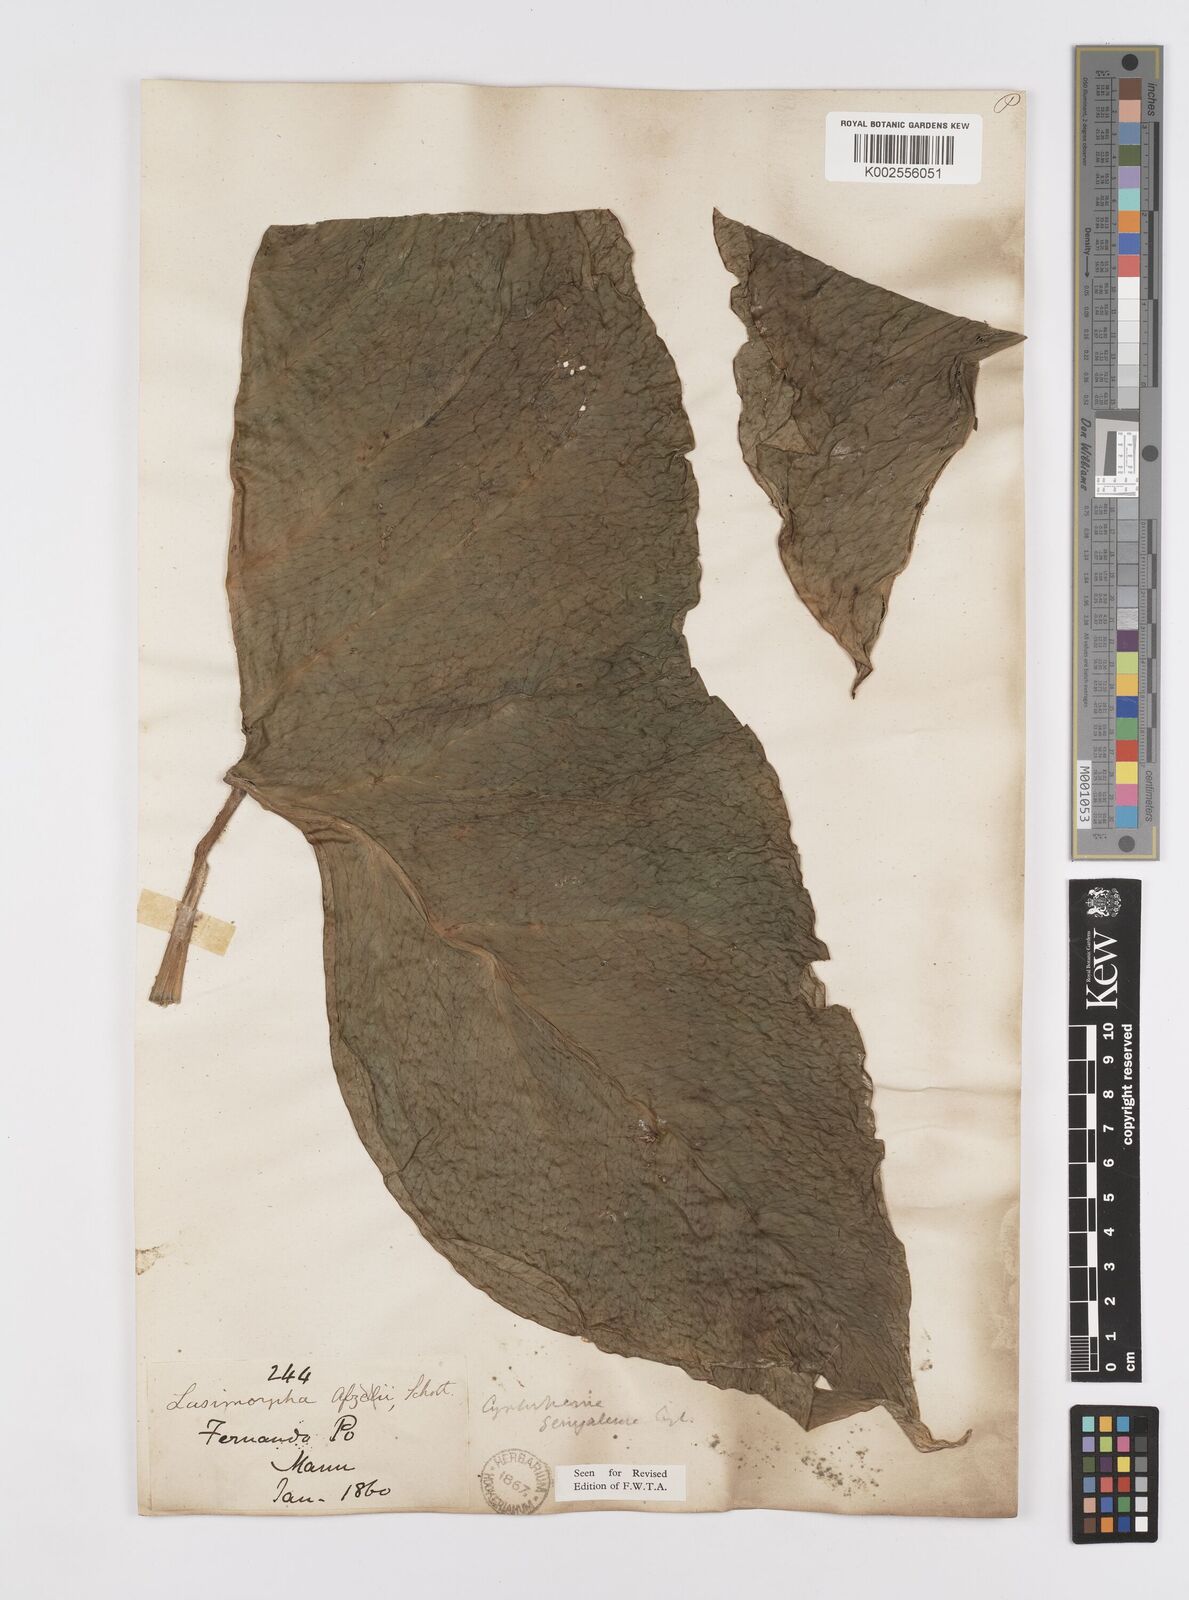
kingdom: Plantae
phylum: Tracheophyta
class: Liliopsida
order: Alismatales
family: Araceae
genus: Lasimorpha
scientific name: Lasimorpha senegalensis
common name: Swamp arum
